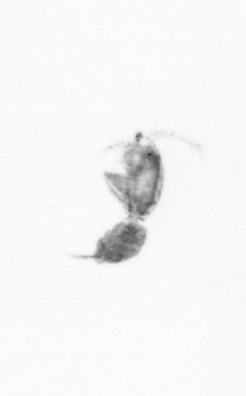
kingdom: Animalia
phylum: Arthropoda
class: Copepoda
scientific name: Copepoda
